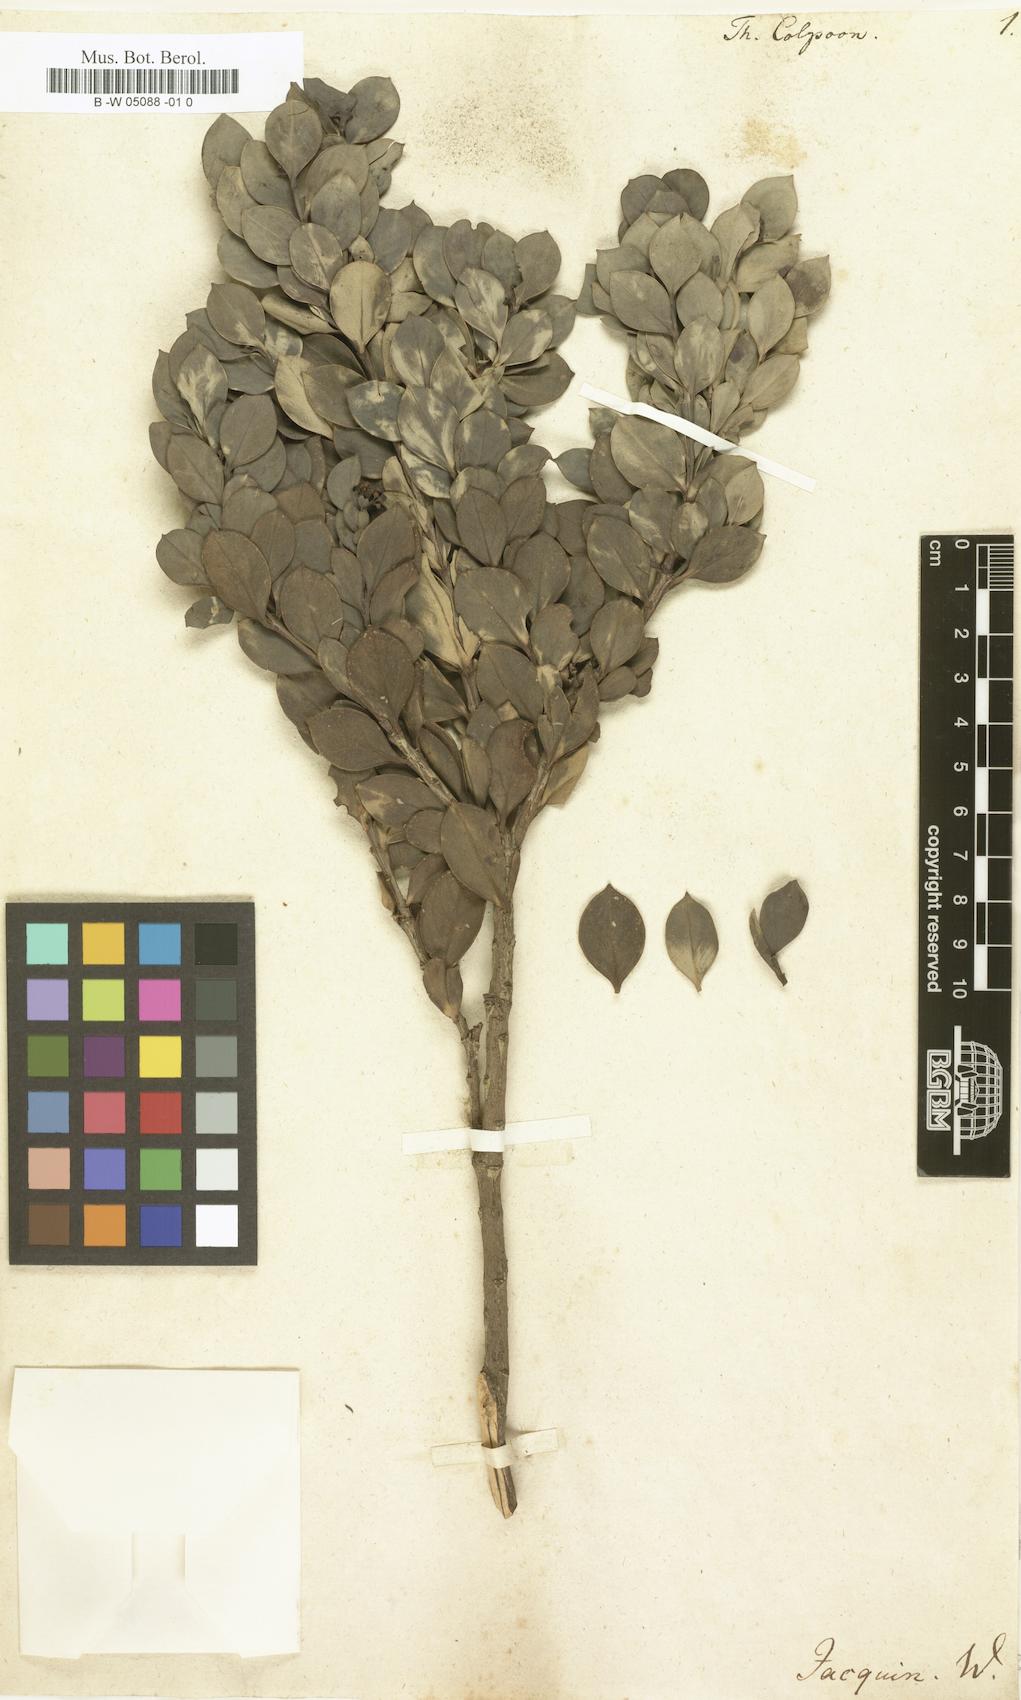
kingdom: Plantae
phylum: Tracheophyta
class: Magnoliopsida
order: Santalales
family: Santalaceae
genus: Osyris
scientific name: Osyris compressa
